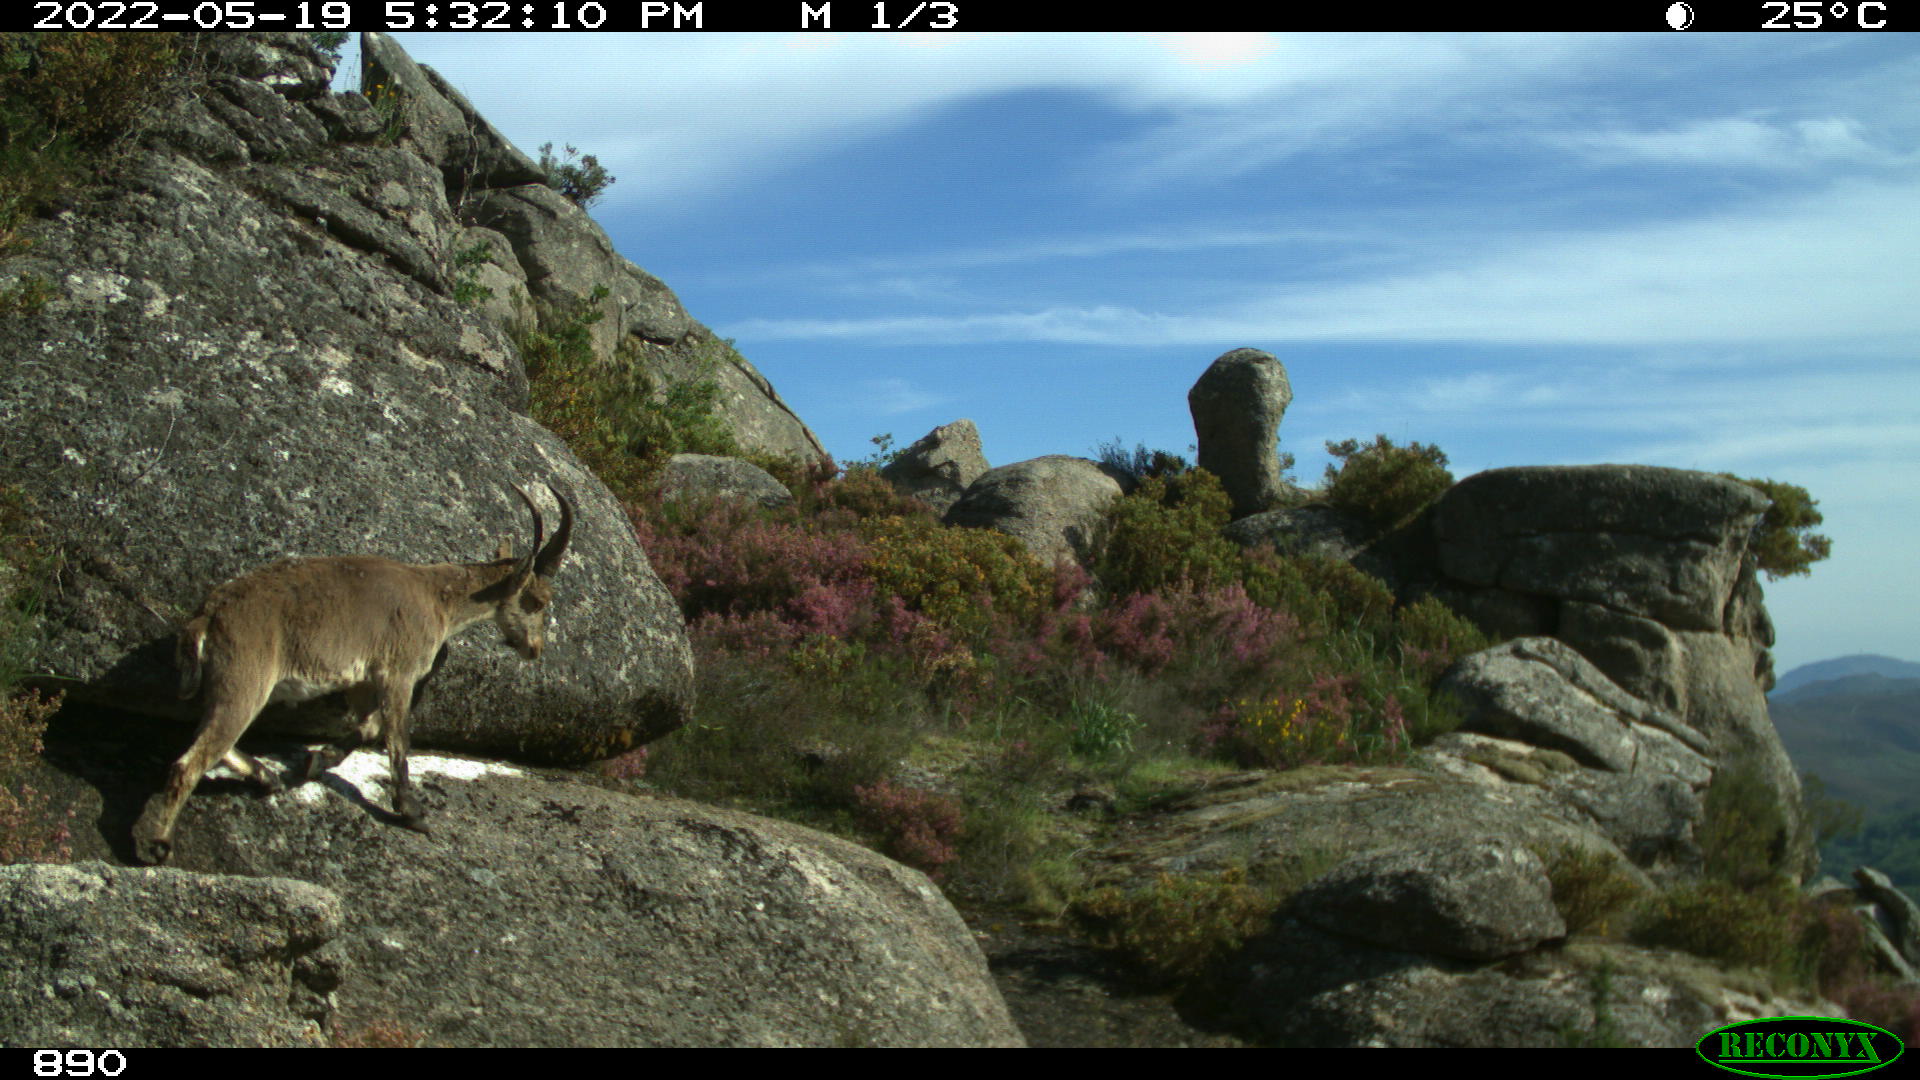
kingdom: Animalia
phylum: Chordata
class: Mammalia
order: Artiodactyla
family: Bovidae
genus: Capra
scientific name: Capra pyrenaica
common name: Spanish ibex
